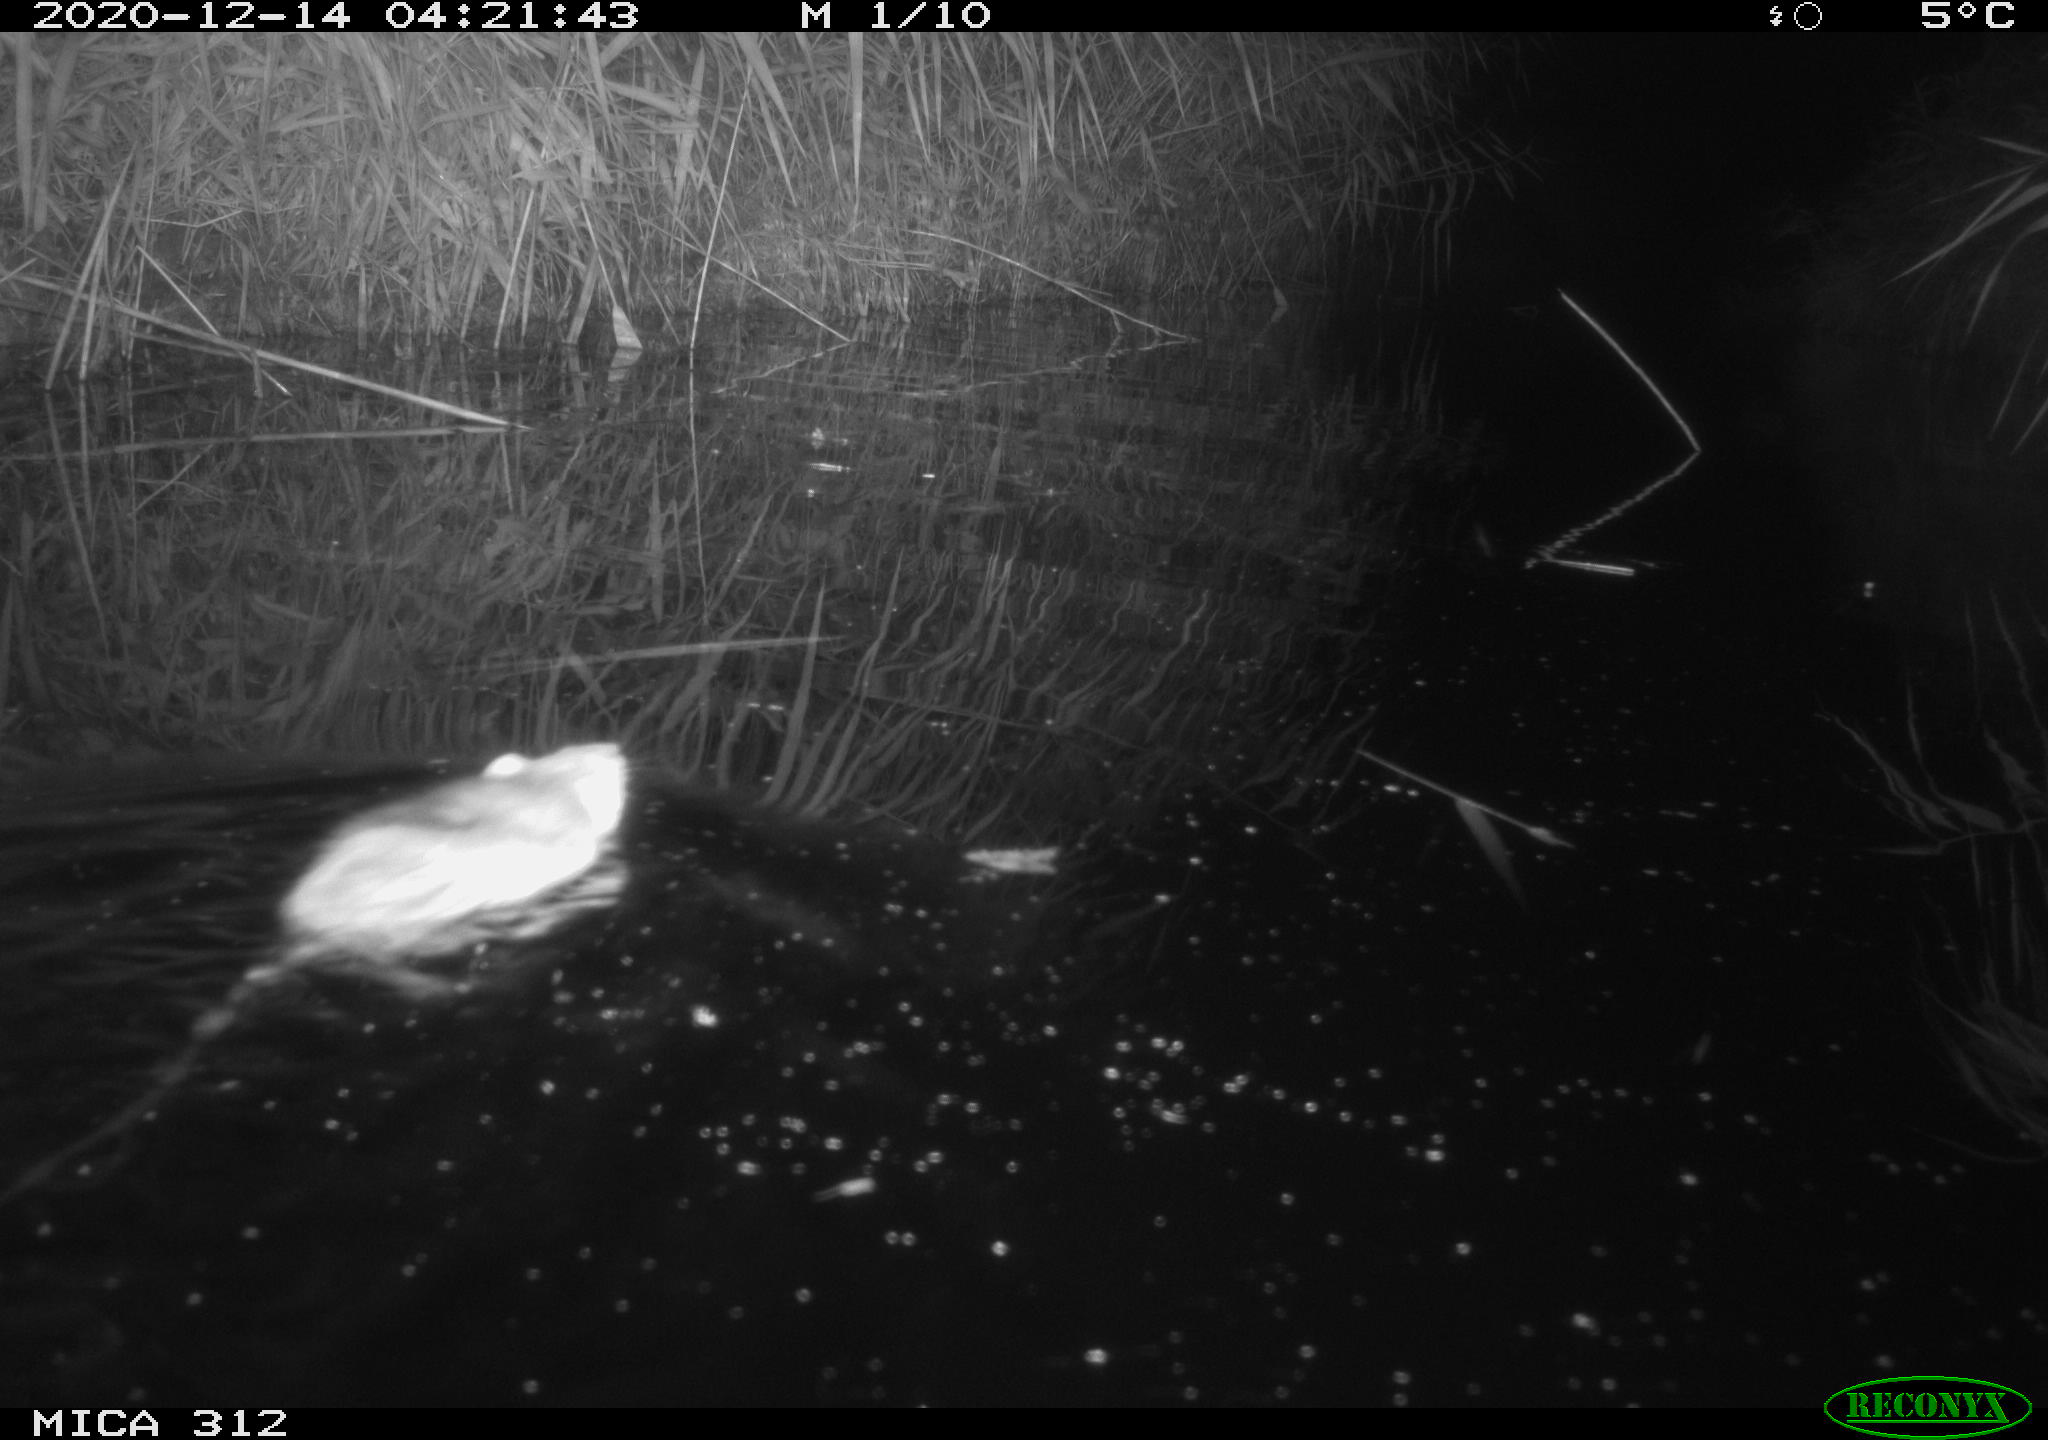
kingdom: Animalia
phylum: Chordata
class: Mammalia
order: Rodentia
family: Muridae
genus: Rattus
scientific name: Rattus norvegicus
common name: Brown rat
